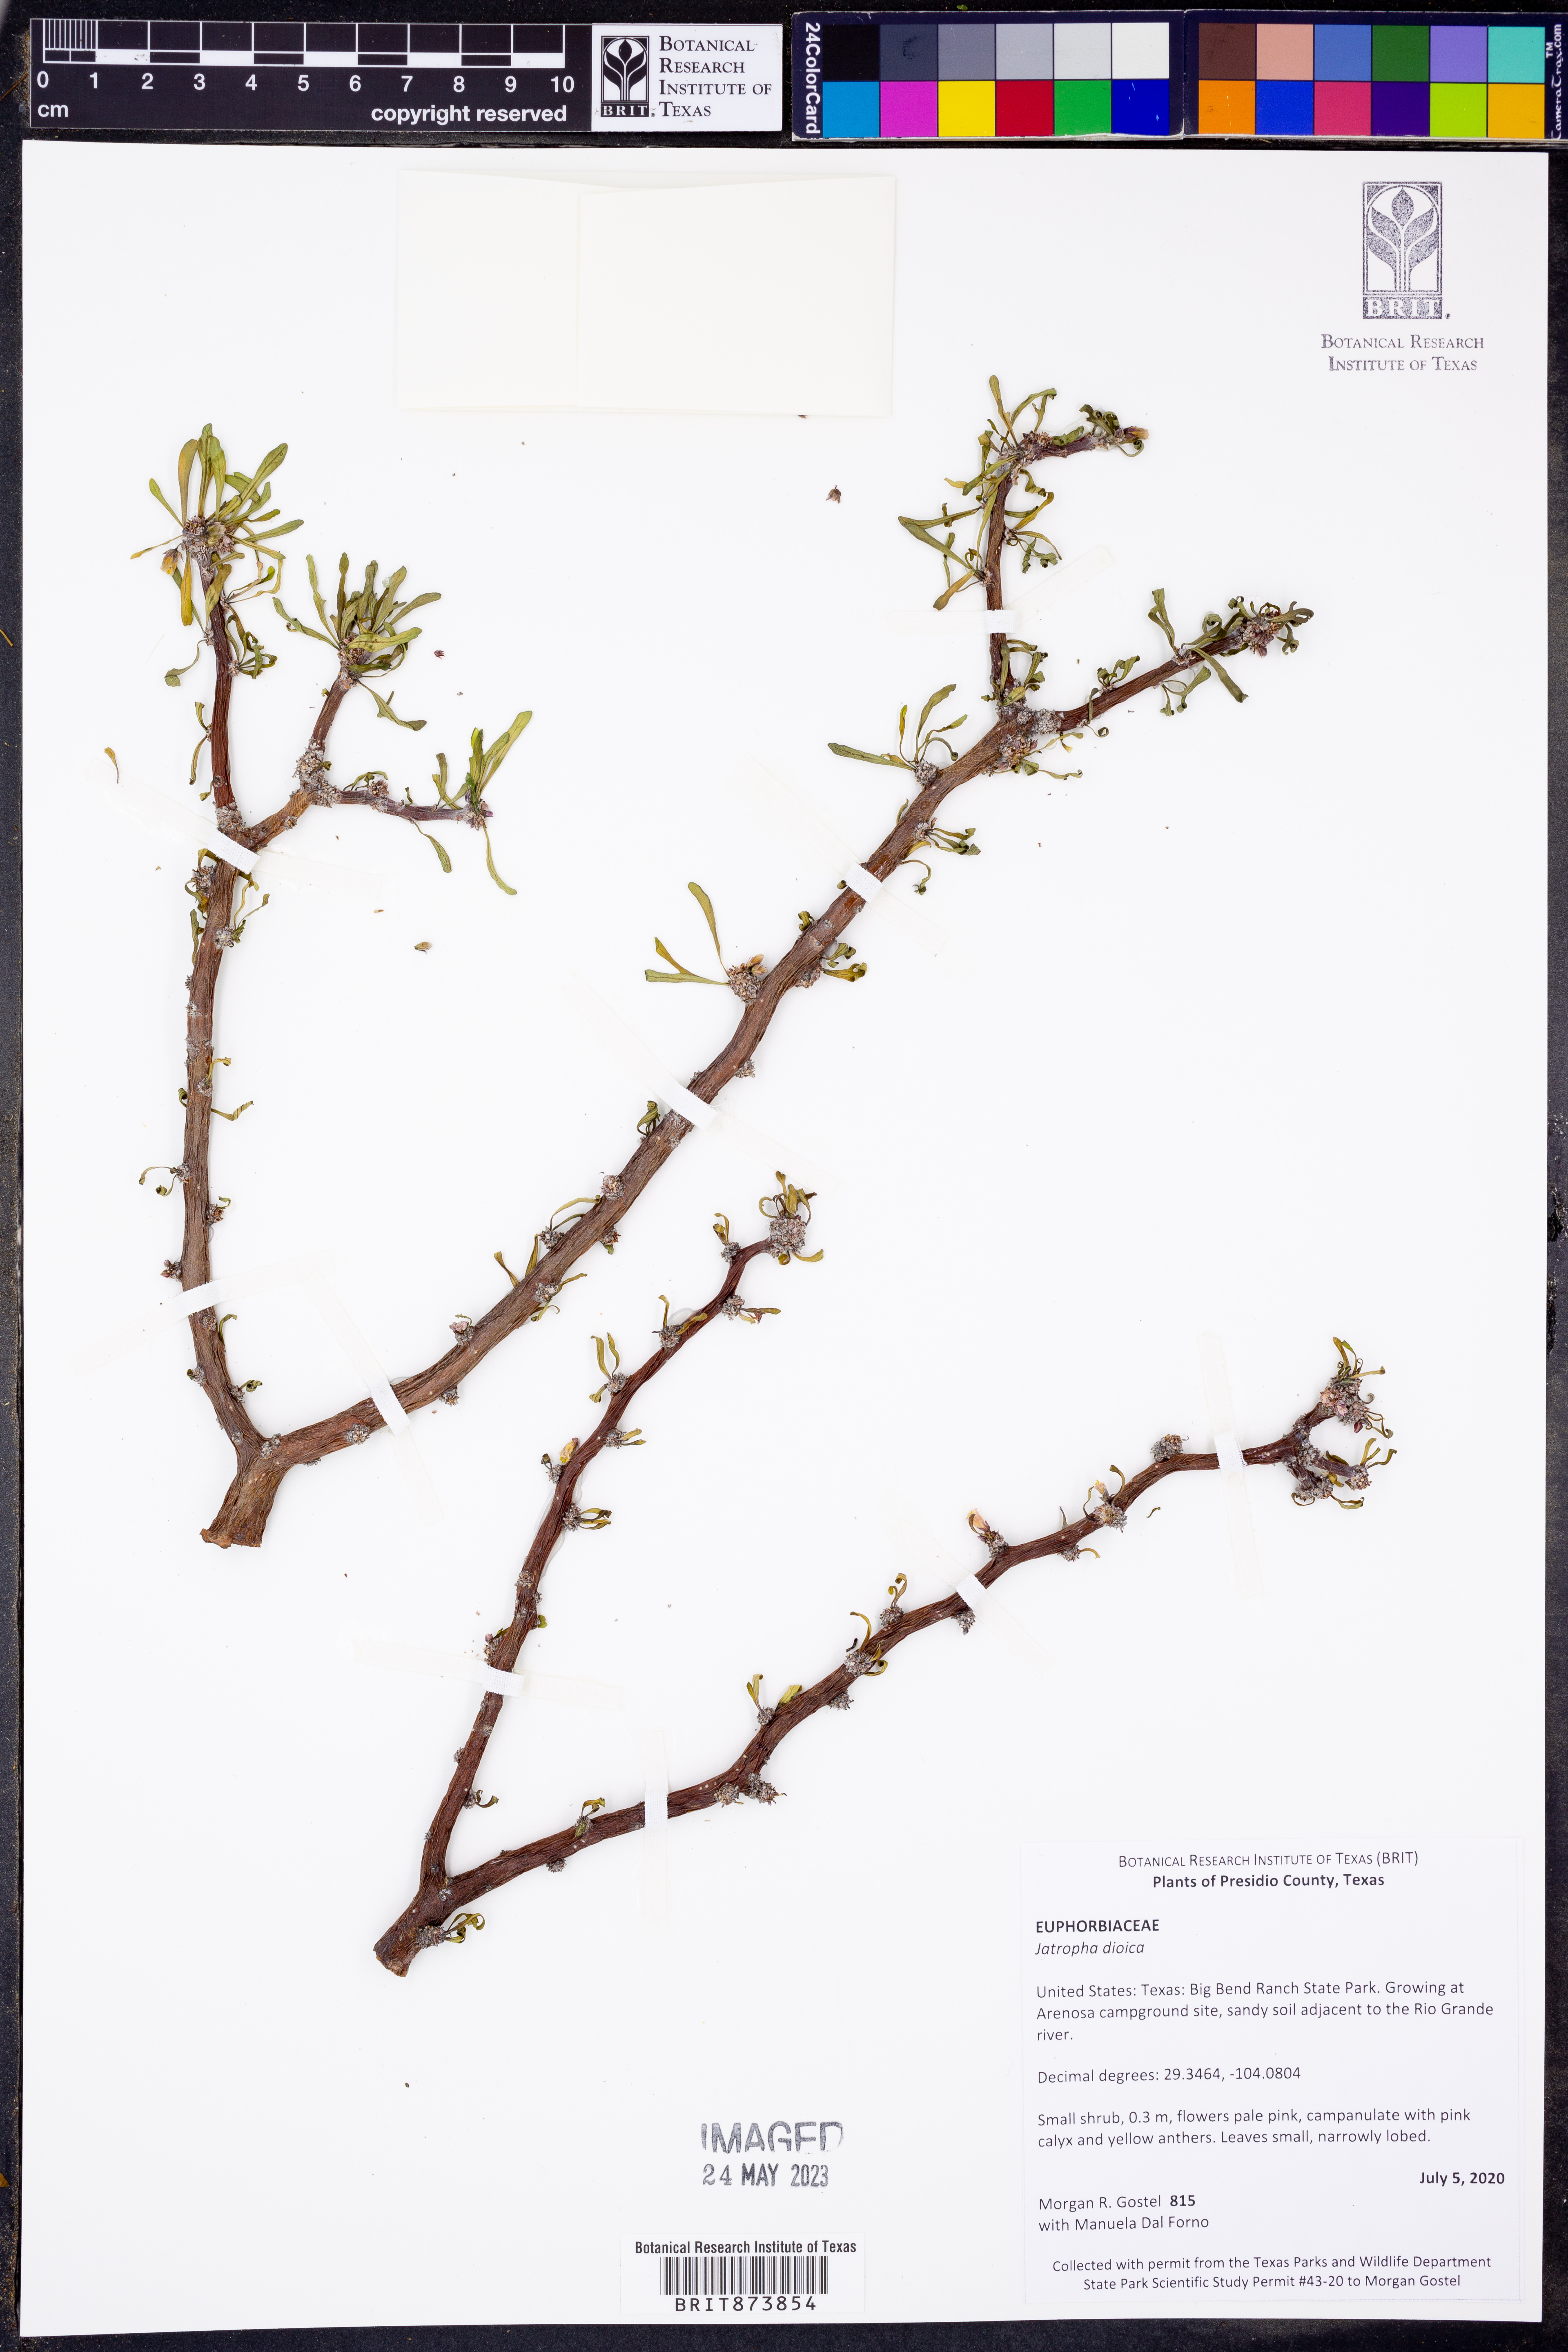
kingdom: Plantae
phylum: Tracheophyta
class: Magnoliopsida
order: Malpighiales
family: Euphorbiaceae
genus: Jatropha
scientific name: Jatropha dioica
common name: Leatherstem
